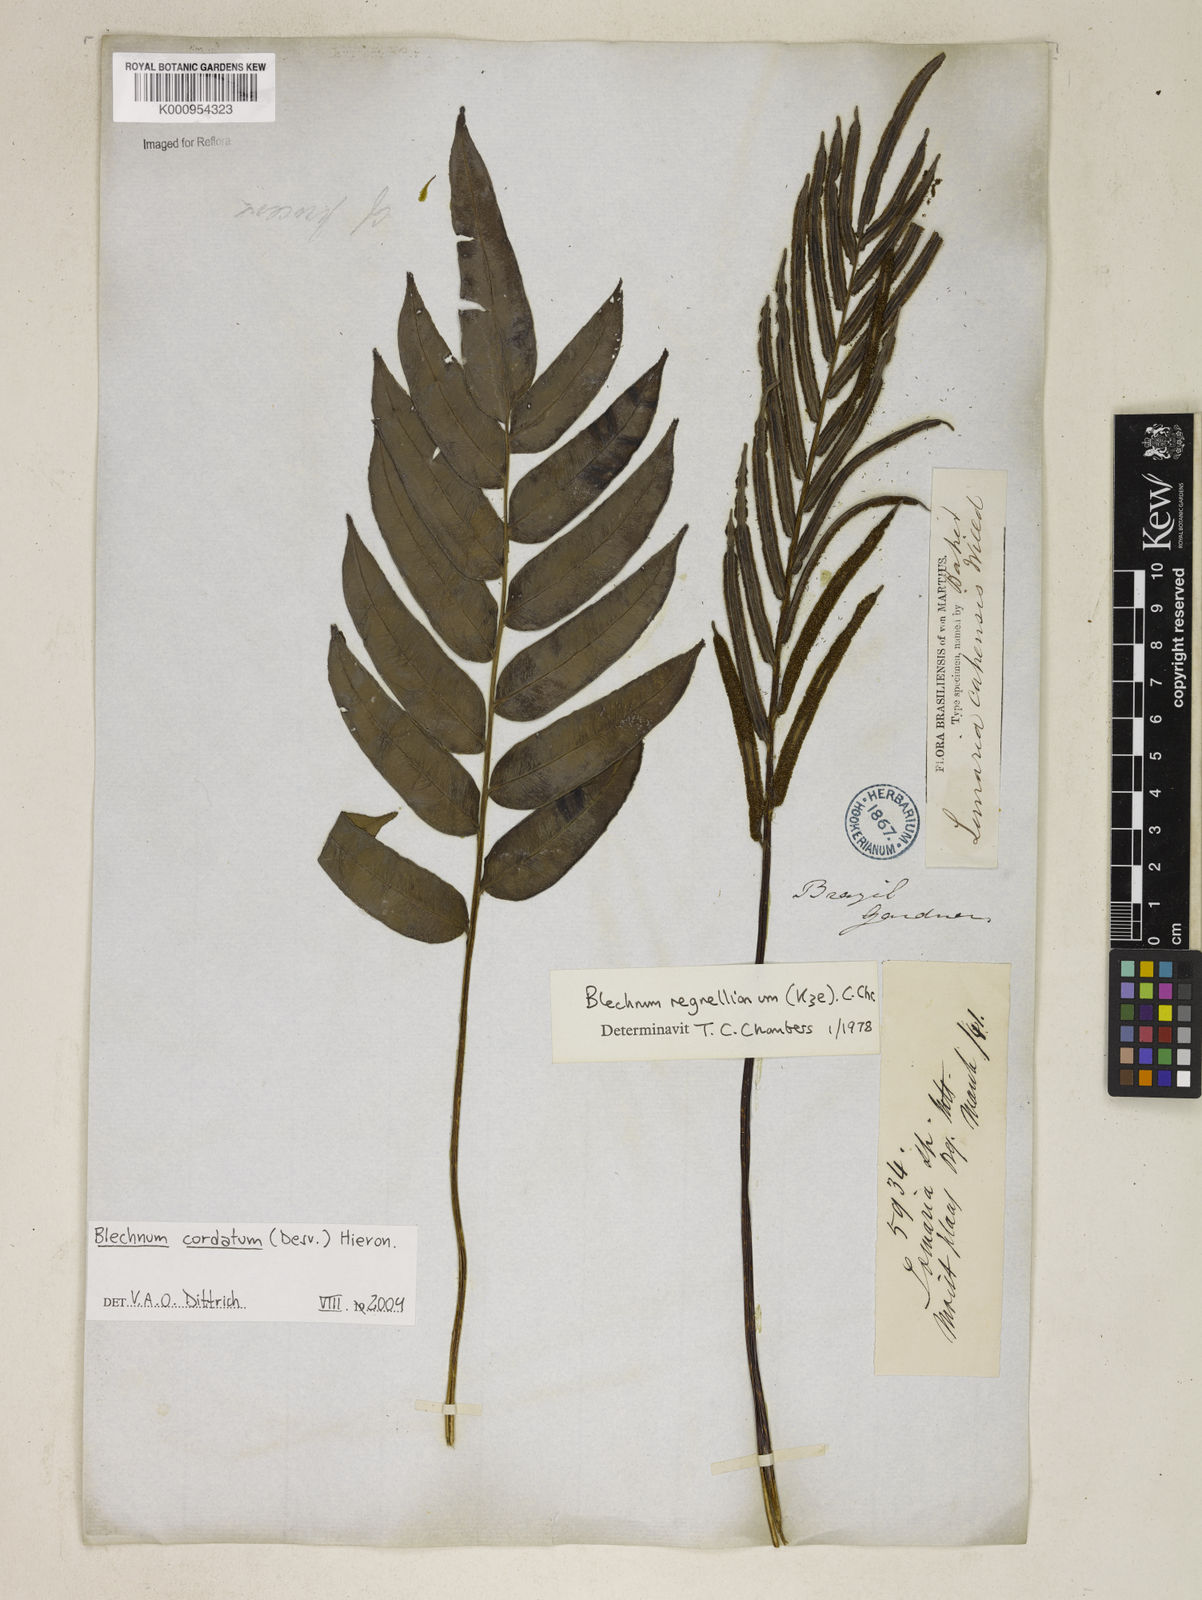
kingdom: Plantae
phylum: Tracheophyta
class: Polypodiopsida
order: Polypodiales
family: Blechnaceae
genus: Parablechnum
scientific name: Parablechnum cordatum
